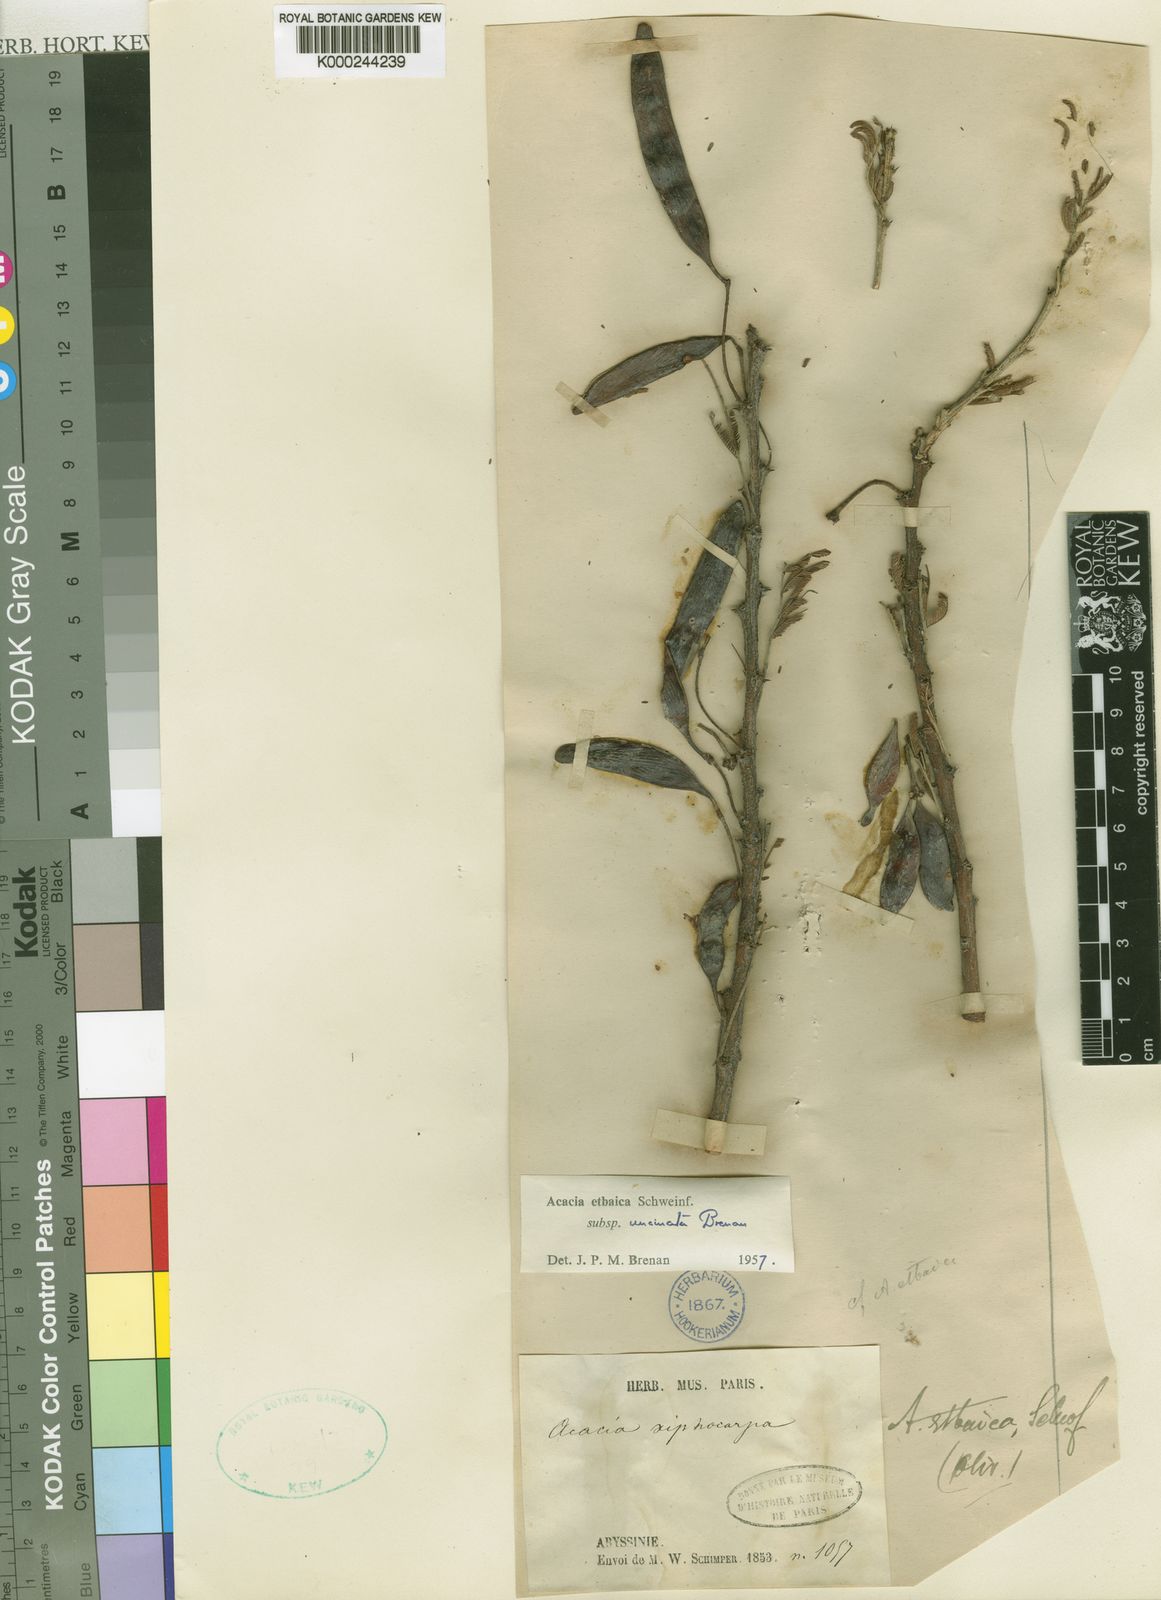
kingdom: Plantae
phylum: Tracheophyta
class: Magnoliopsida
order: Fabales
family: Fabaceae
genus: Vachellia
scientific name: Vachellia etbaica
